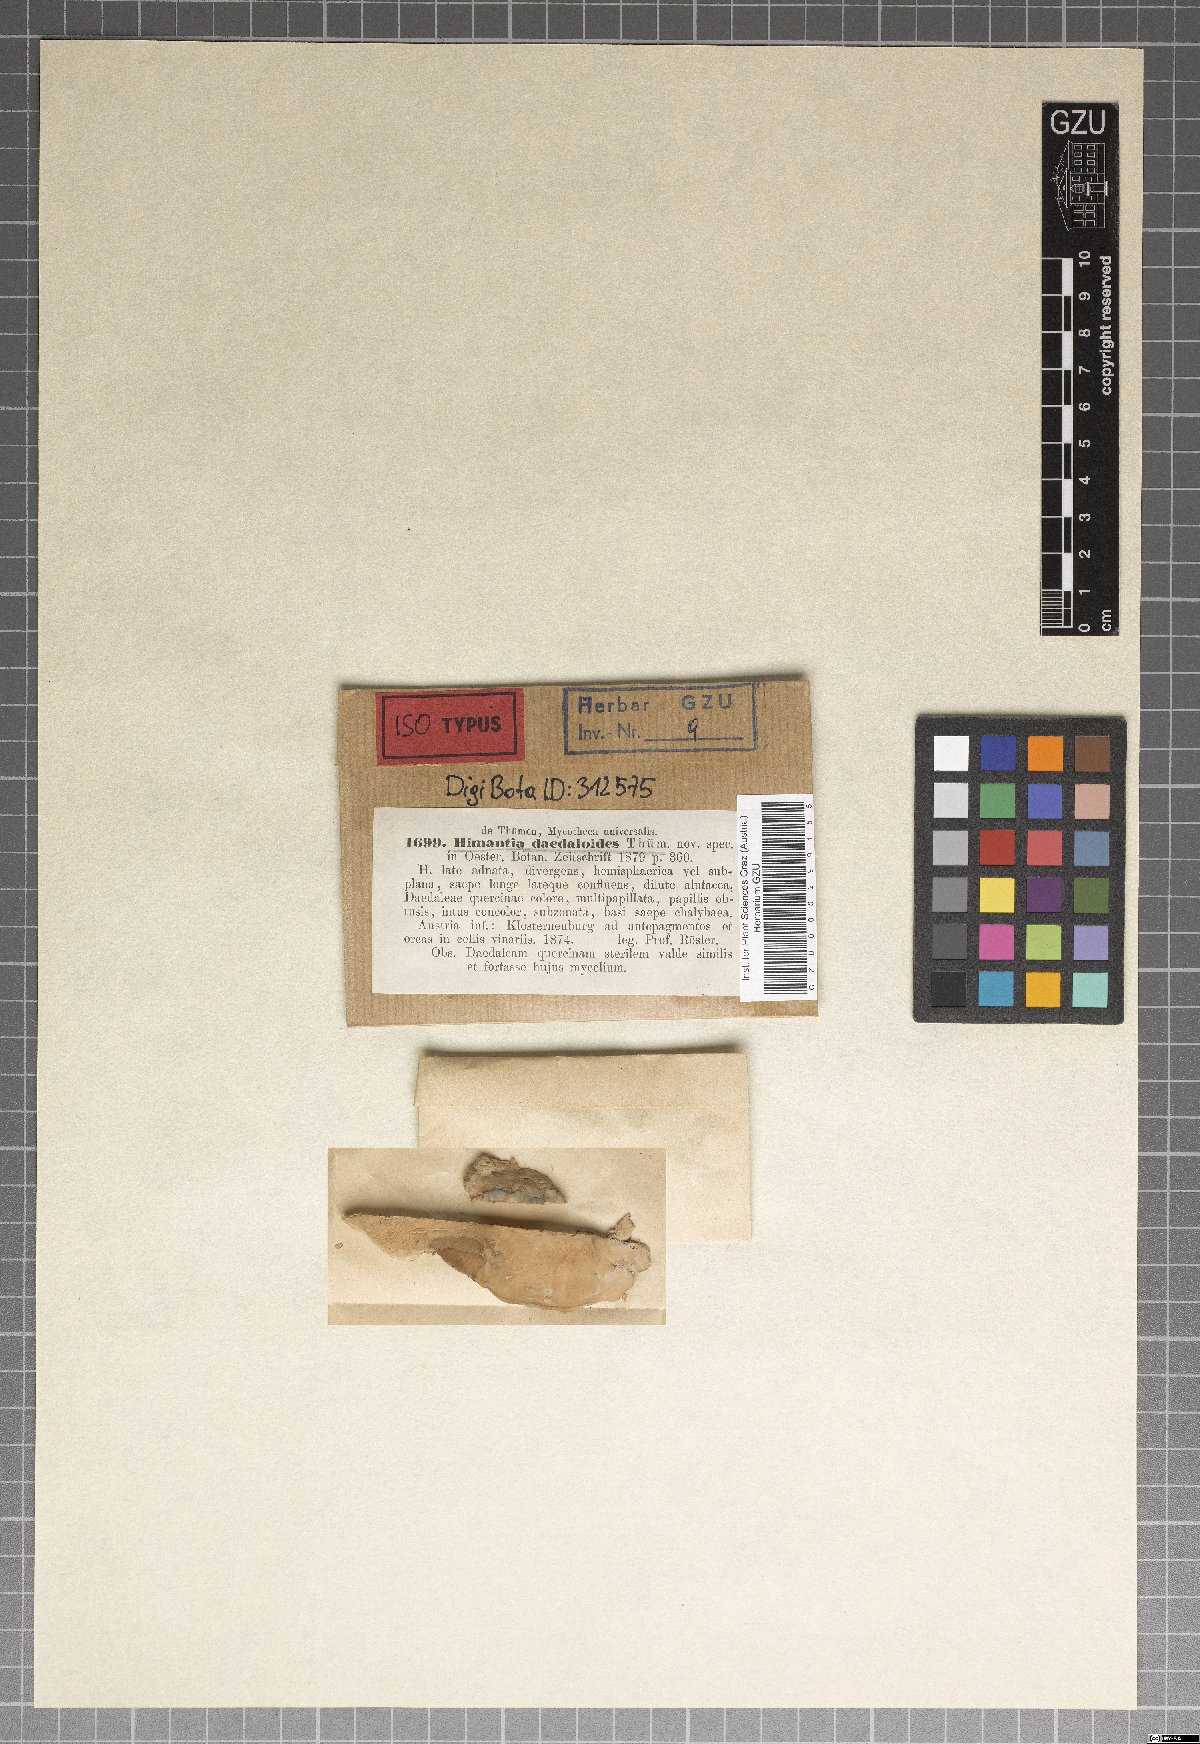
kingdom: Fungi
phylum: Ascomycota
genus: Himantia
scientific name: Himantia
